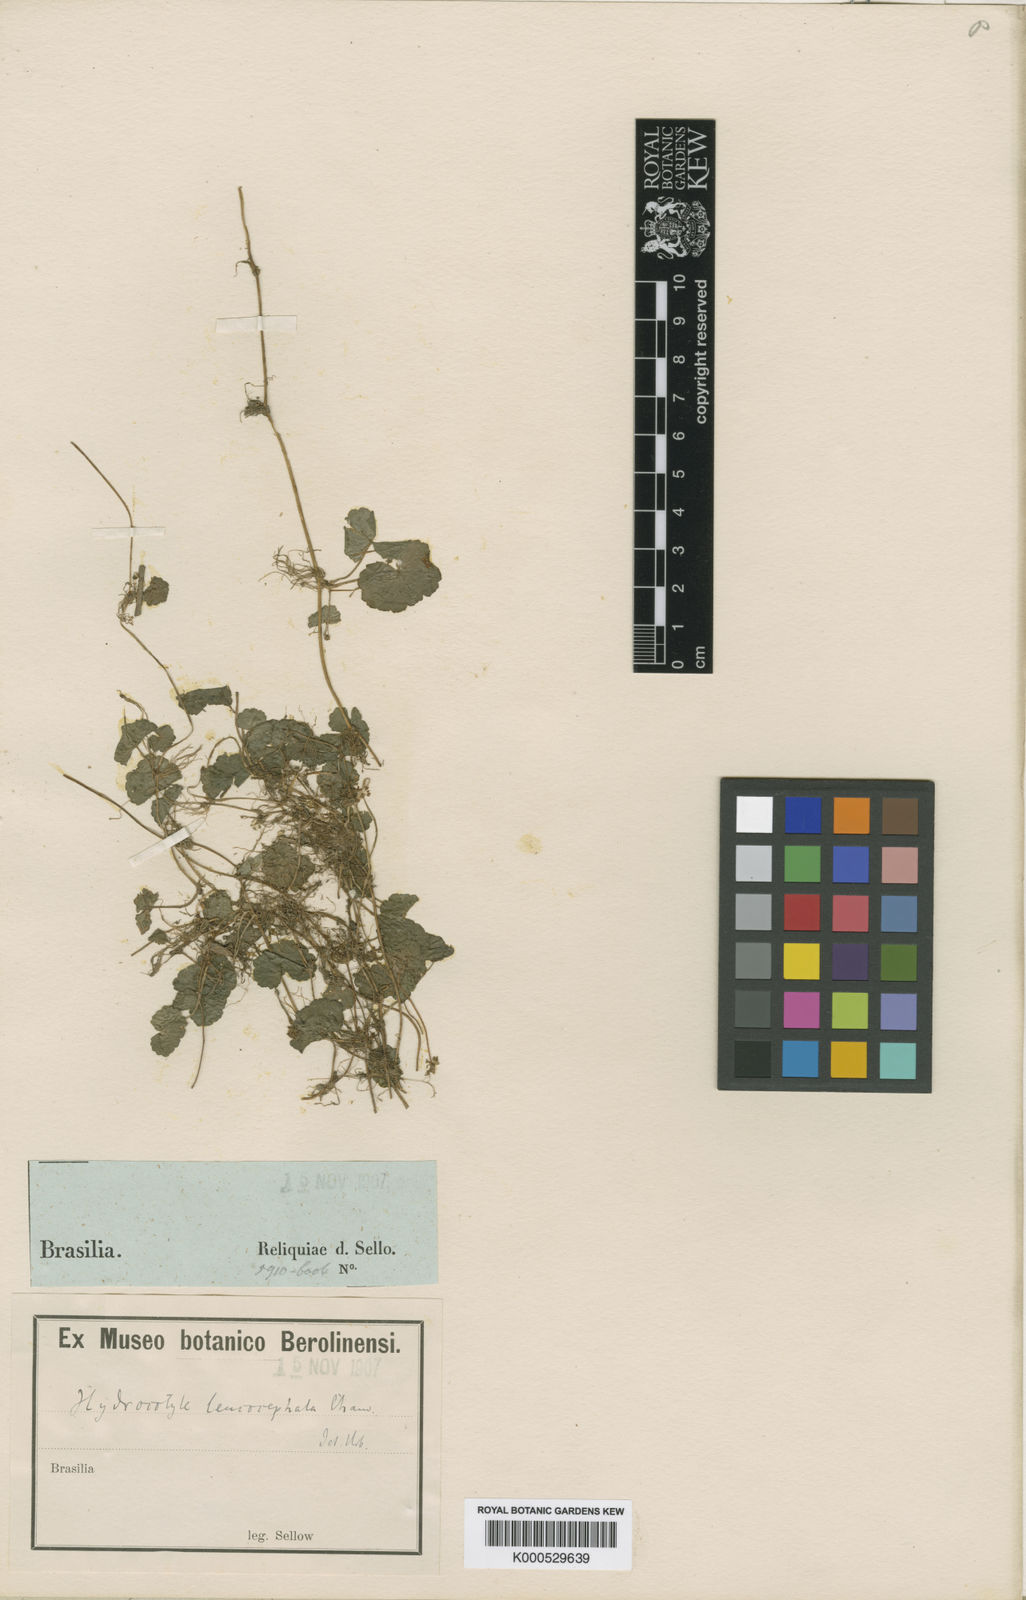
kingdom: Plantae
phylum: Tracheophyta
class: Magnoliopsida
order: Apiales
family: Araliaceae
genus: Hydrocotyle
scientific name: Hydrocotyle leucocephala
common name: Brazilian pennywort
